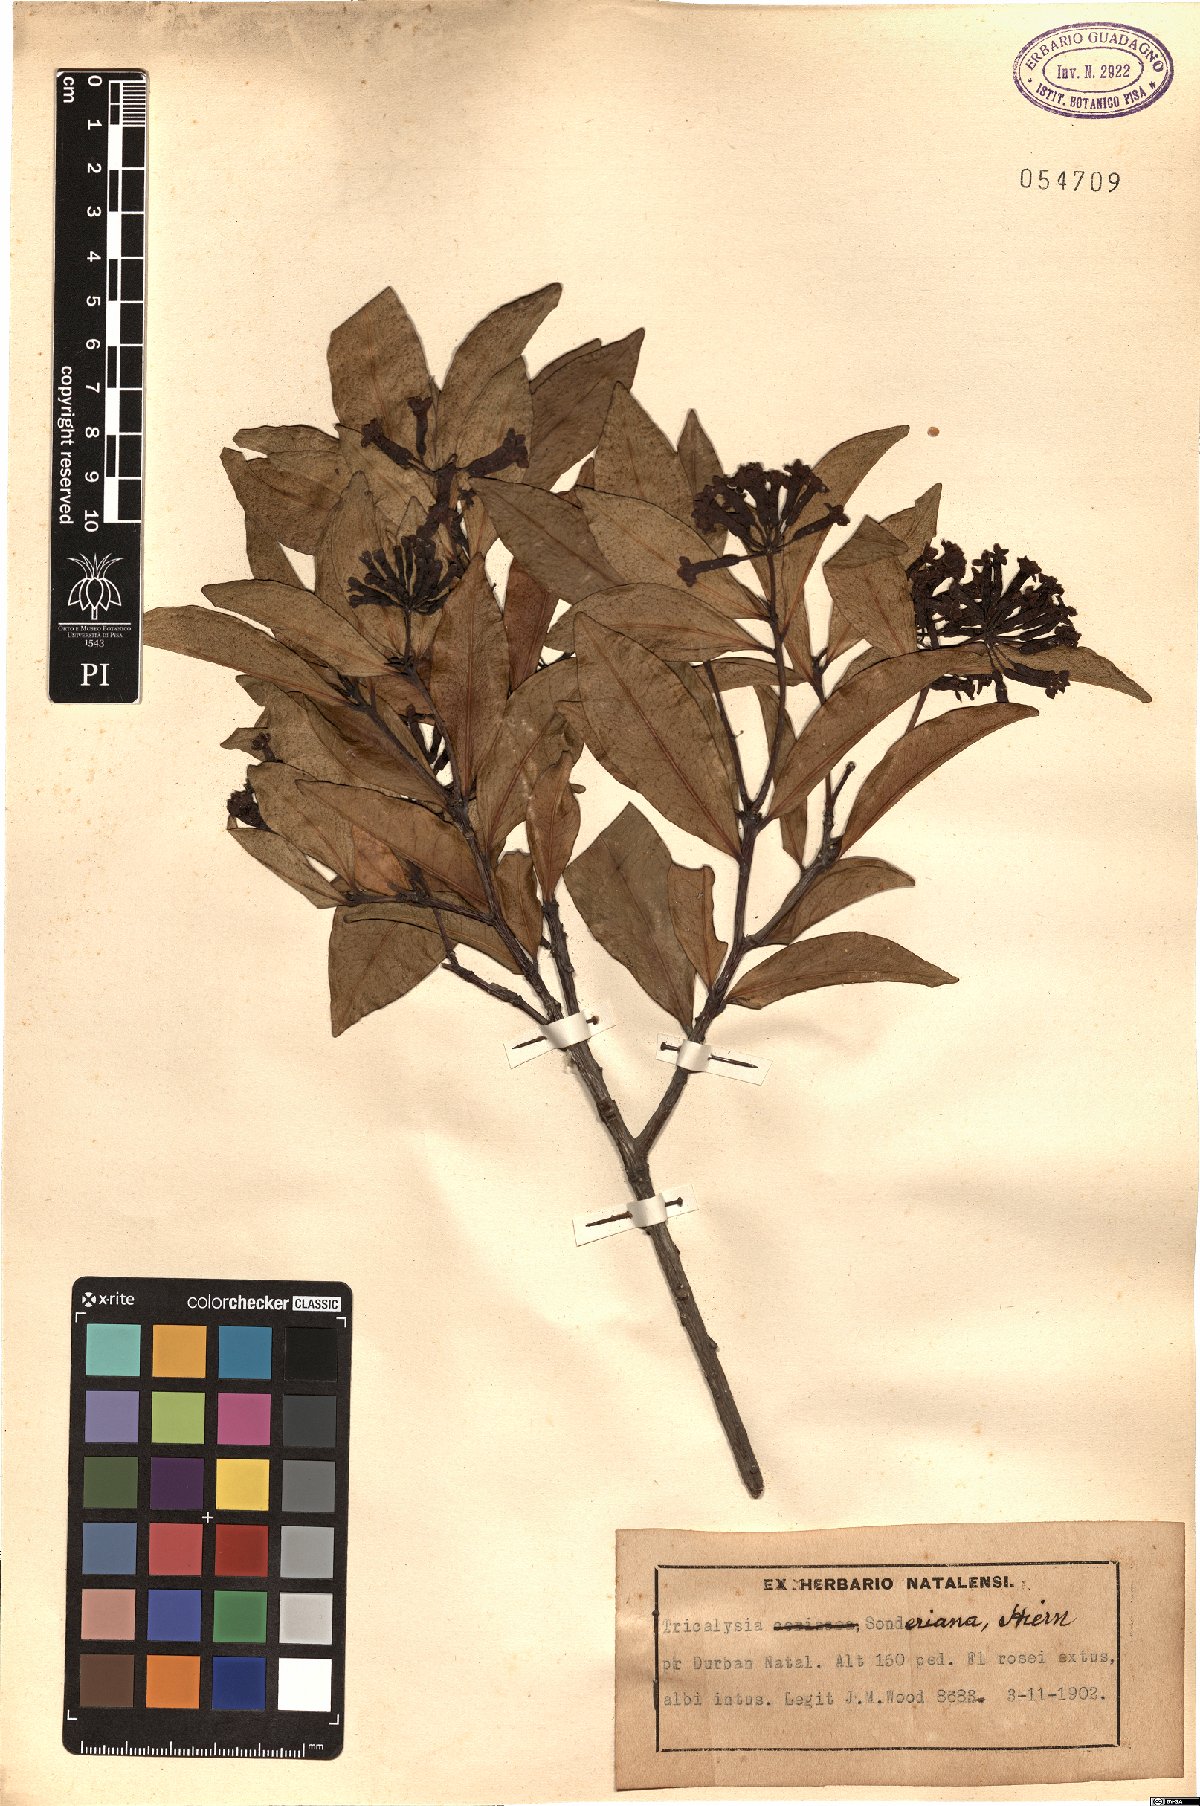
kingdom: Plantae
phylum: Tracheophyta
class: Magnoliopsida
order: Gentianales
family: Rubiaceae
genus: Empogona
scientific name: Empogona coriacea
